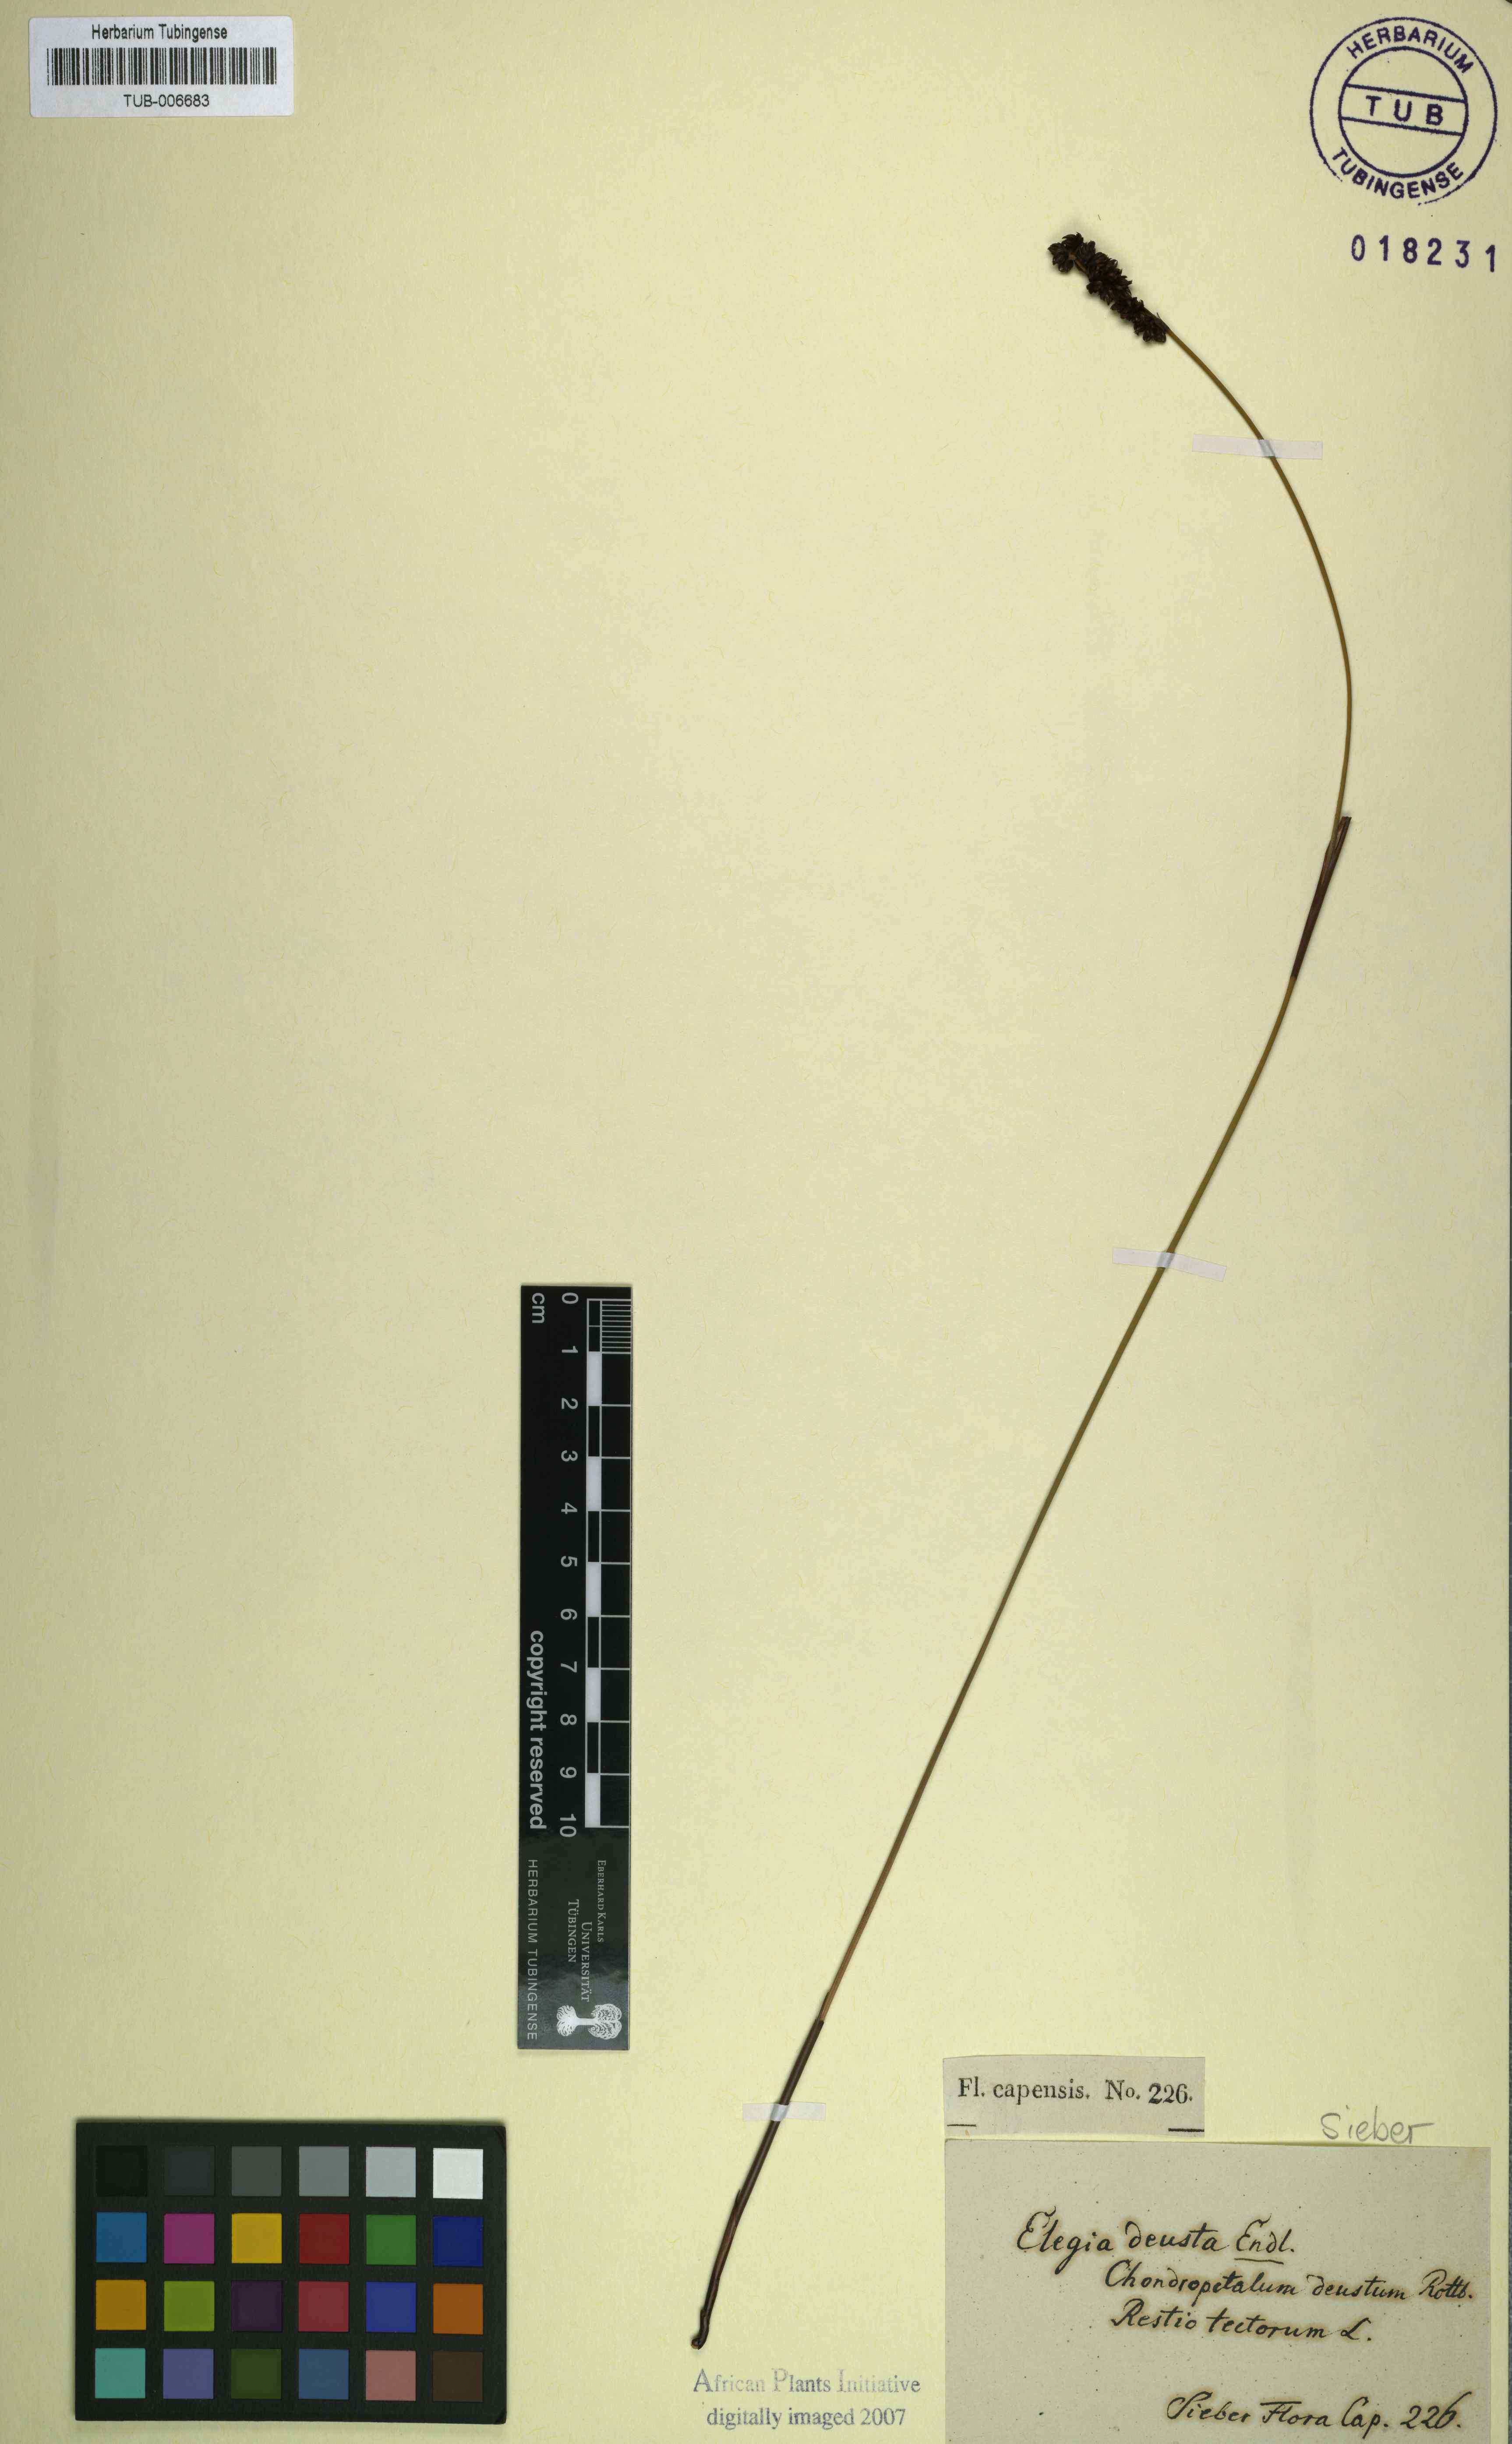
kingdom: Plantae
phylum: Tracheophyta
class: Liliopsida
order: Poales
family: Restionaceae
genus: Elegia
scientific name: Elegia deusta
